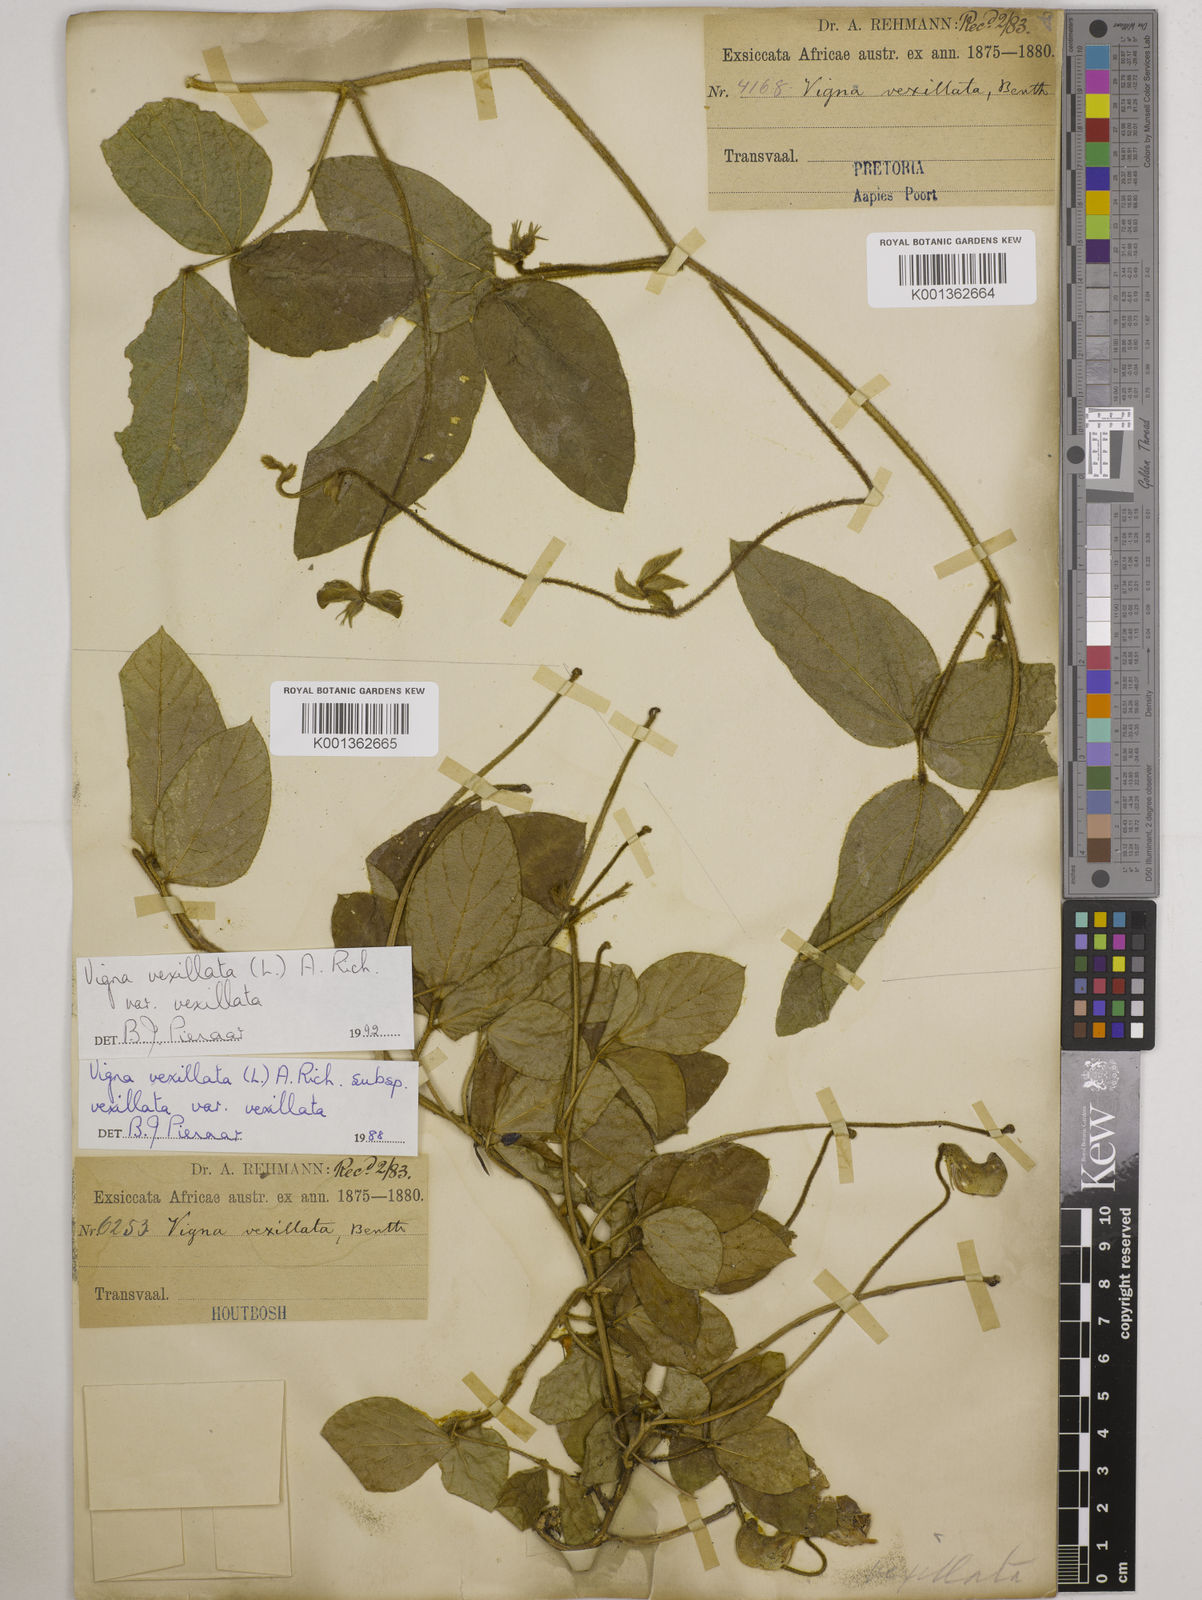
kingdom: Plantae
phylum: Tracheophyta
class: Magnoliopsida
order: Fabales
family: Fabaceae
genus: Vigna
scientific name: Vigna
